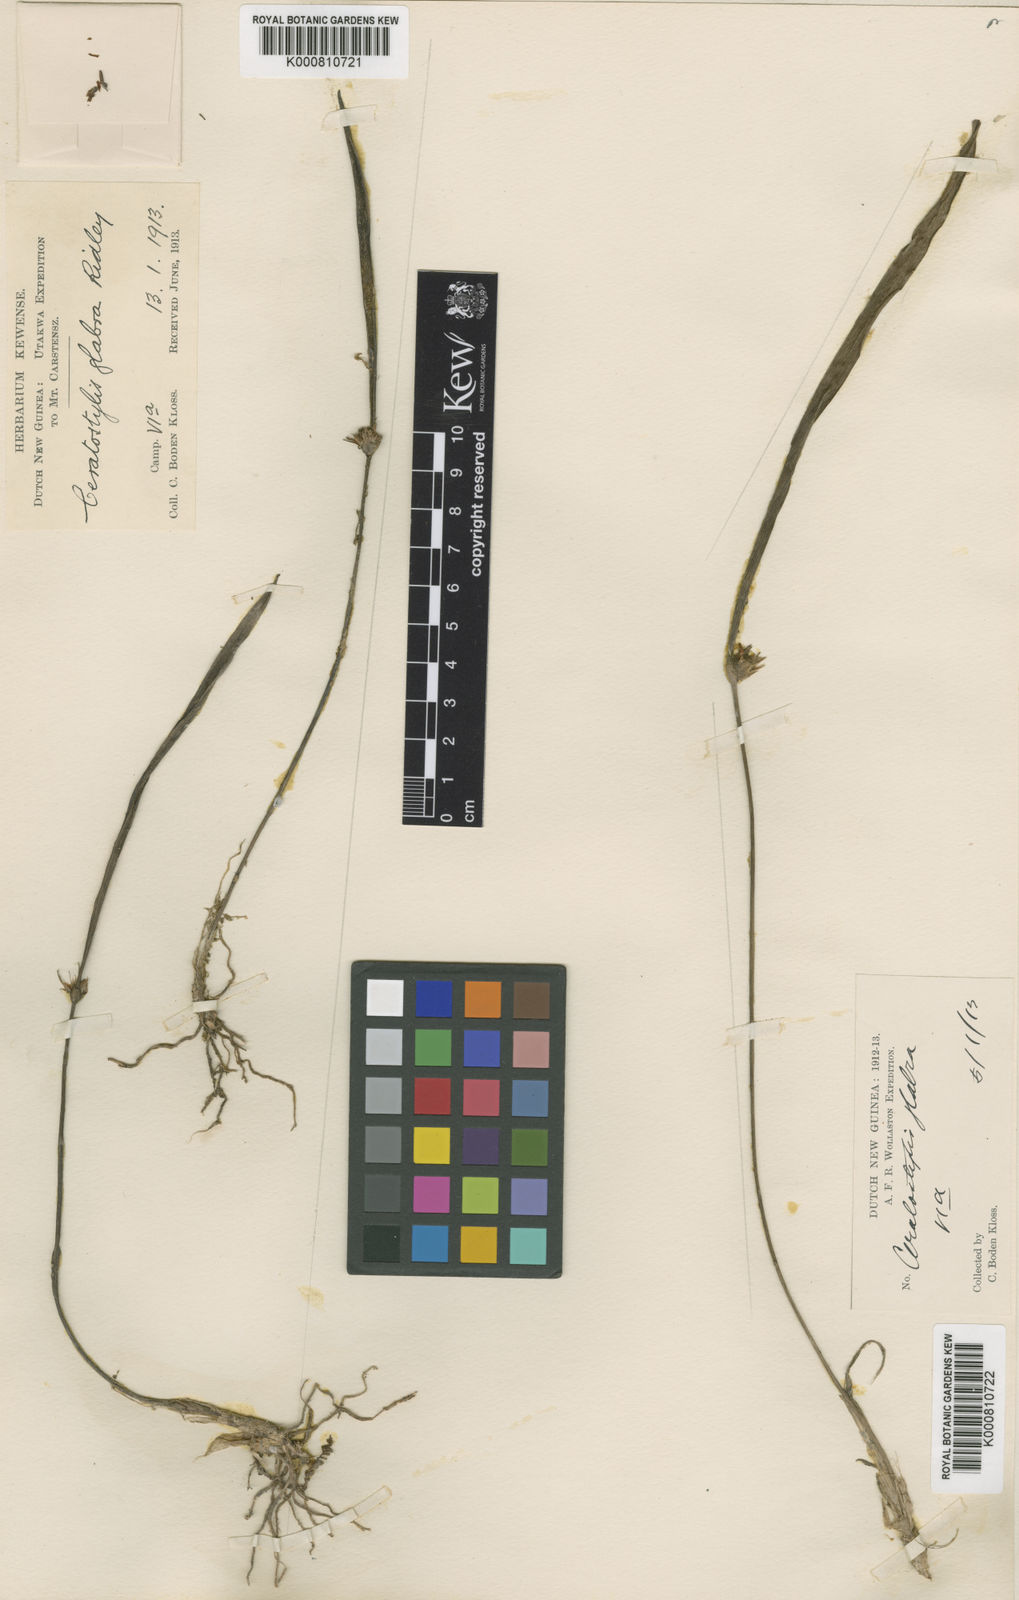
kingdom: Plantae
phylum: Tracheophyta
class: Liliopsida
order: Asparagales
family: Orchidaceae
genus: Ceratostylis
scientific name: Ceratostylis glabra
